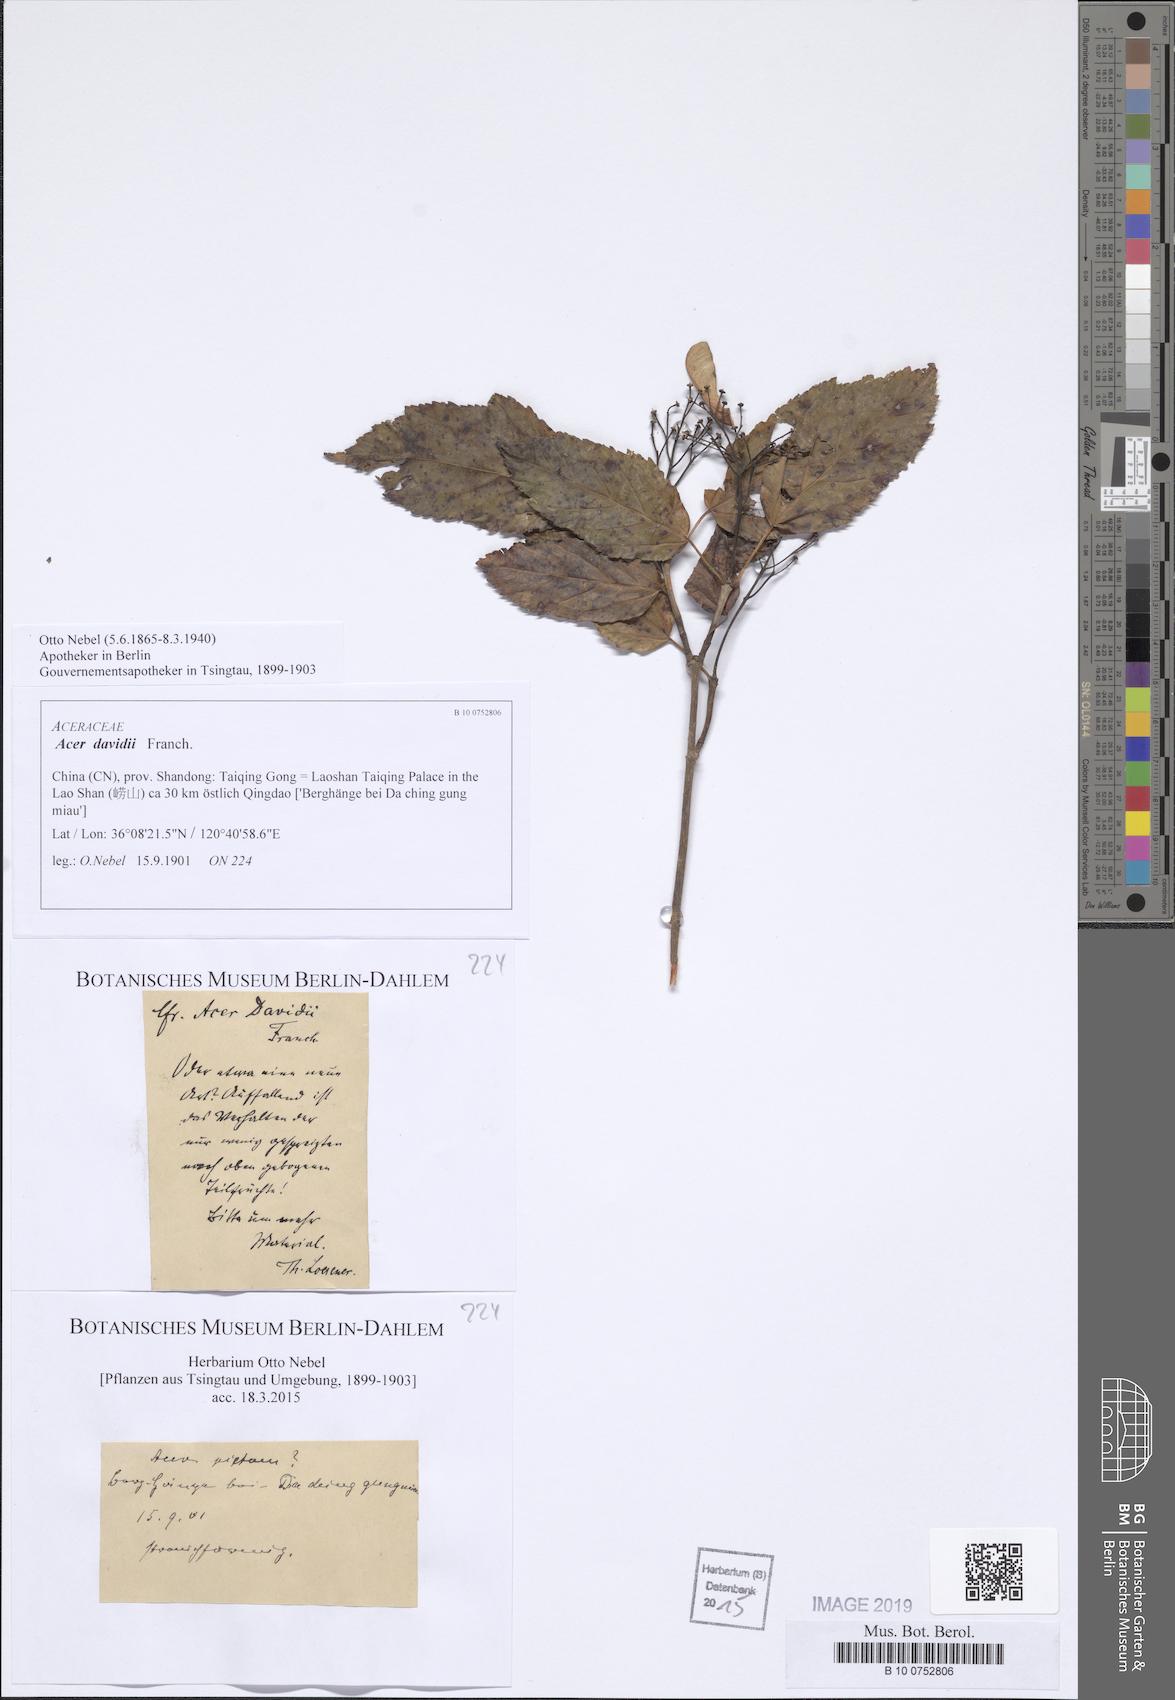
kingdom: Plantae
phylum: Tracheophyta
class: Magnoliopsida
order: Sapindales
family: Sapindaceae
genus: Acer
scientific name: Acer davidii
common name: Father david's maple
